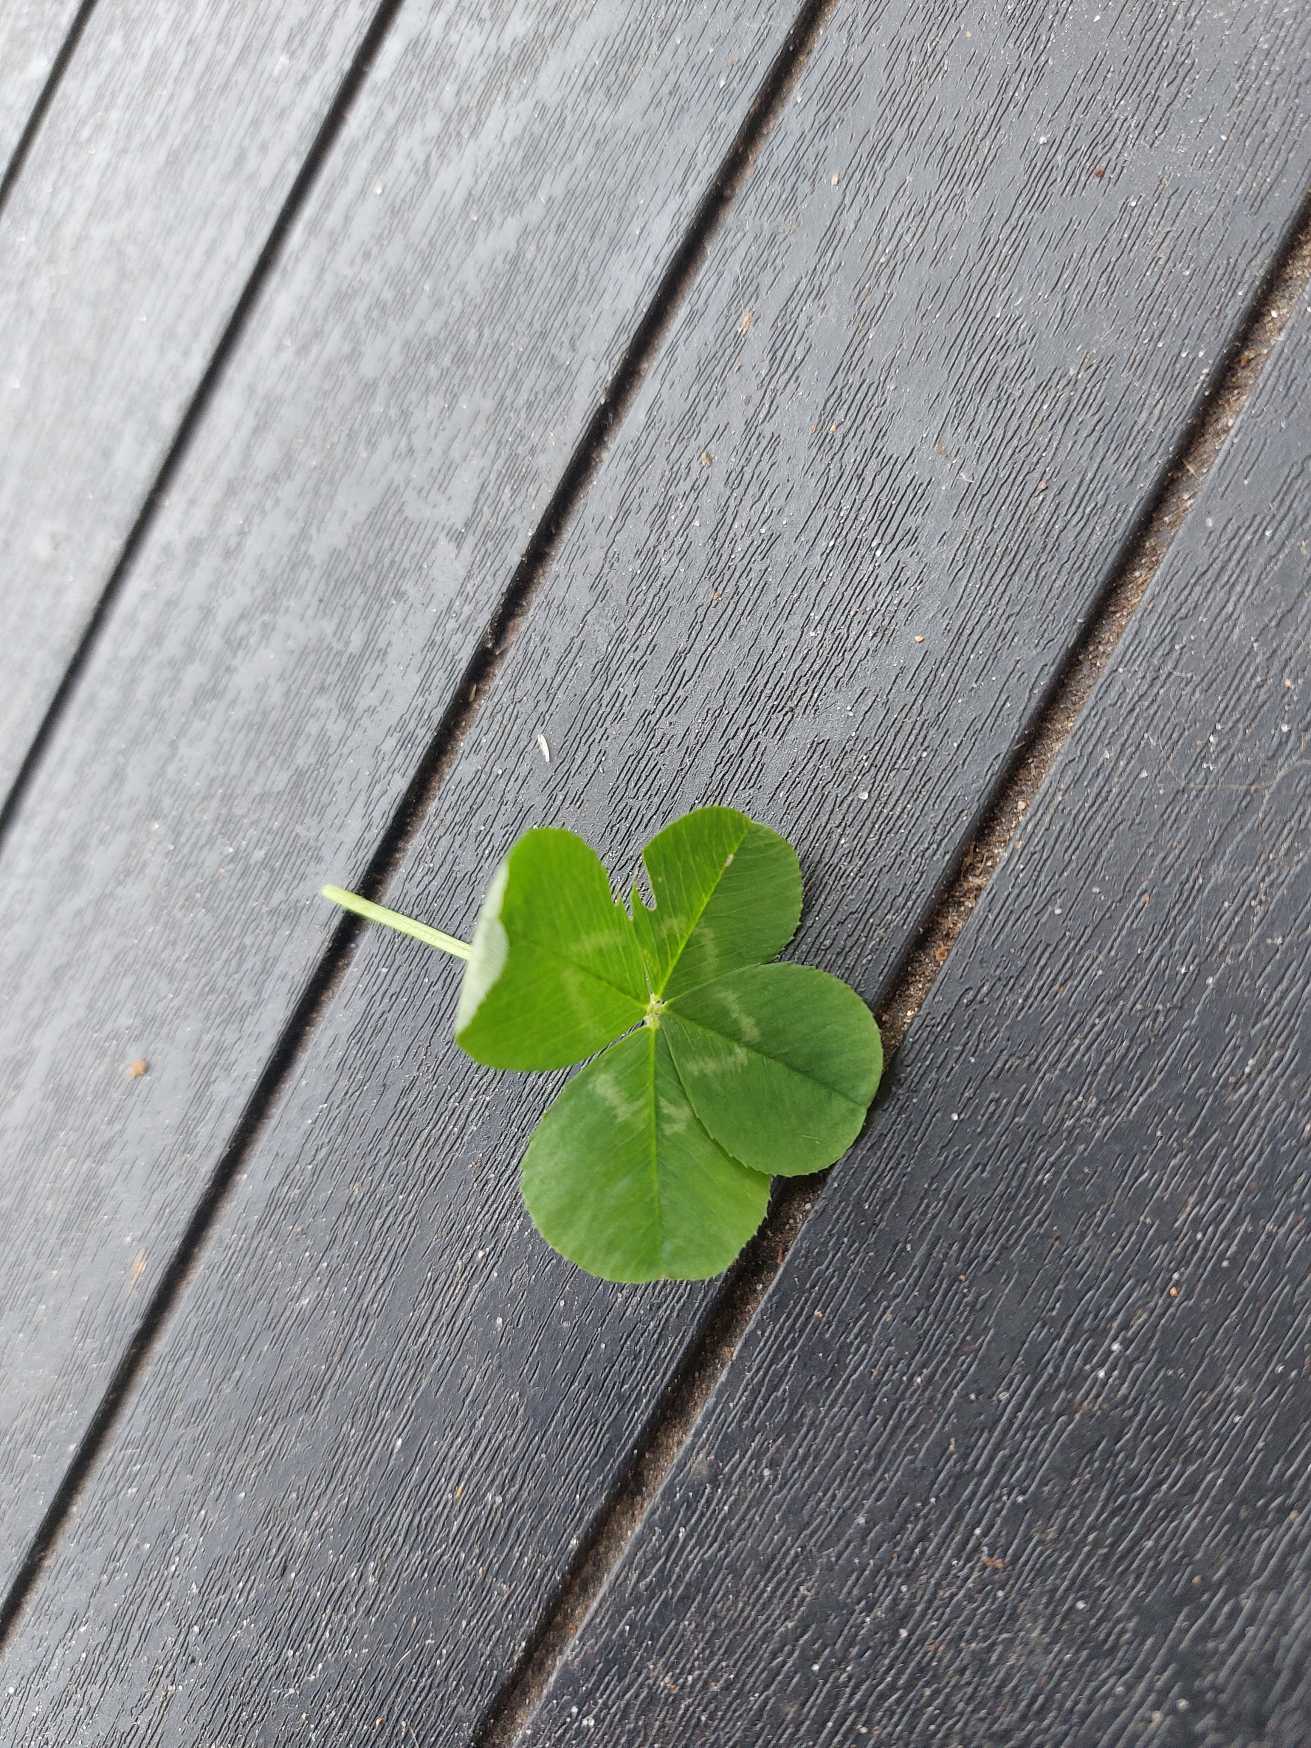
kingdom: Plantae
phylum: Tracheophyta
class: Magnoliopsida
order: Fabales
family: Fabaceae
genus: Trifolium
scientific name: Trifolium
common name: Kløverslægten
